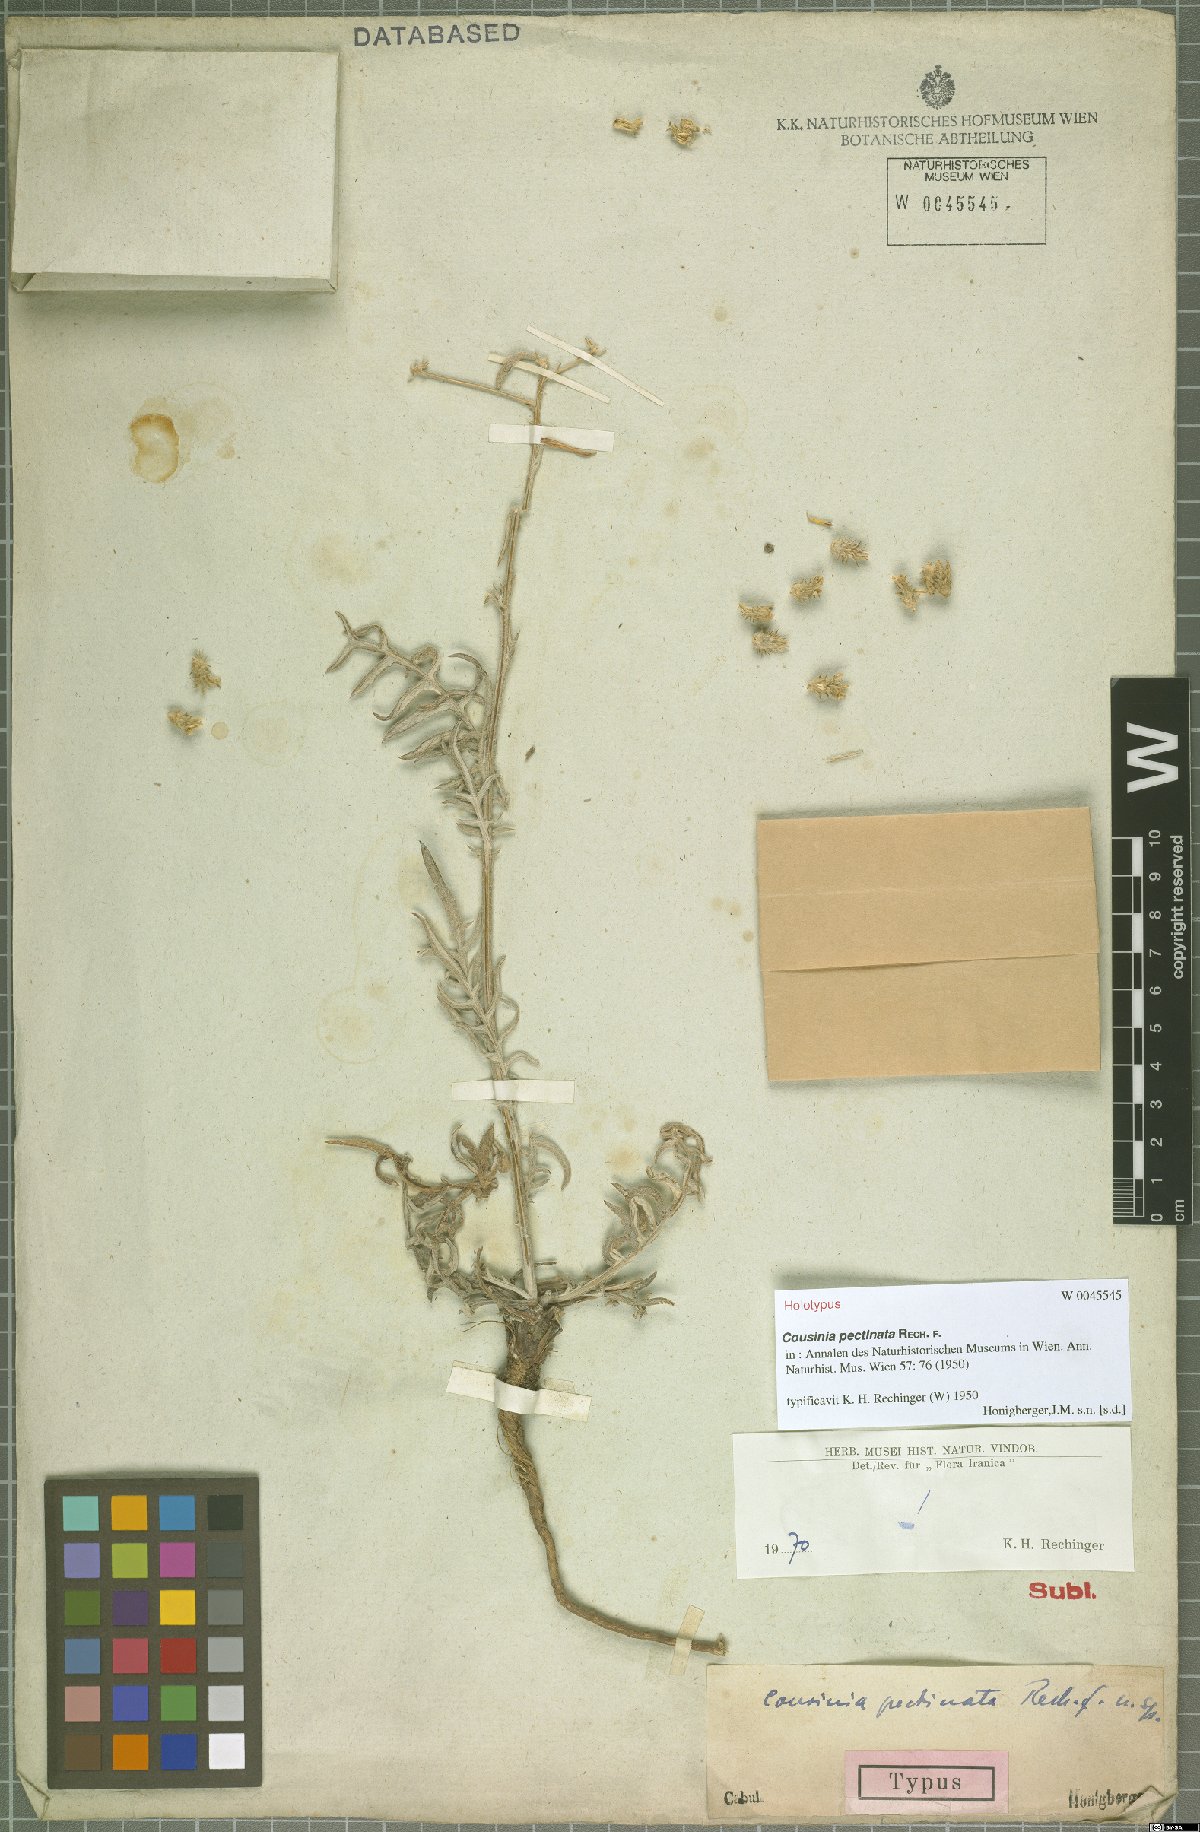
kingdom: Plantae
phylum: Tracheophyta
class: Magnoliopsida
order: Asterales
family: Asteraceae
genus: Cousinia
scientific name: Cousinia pectinata
